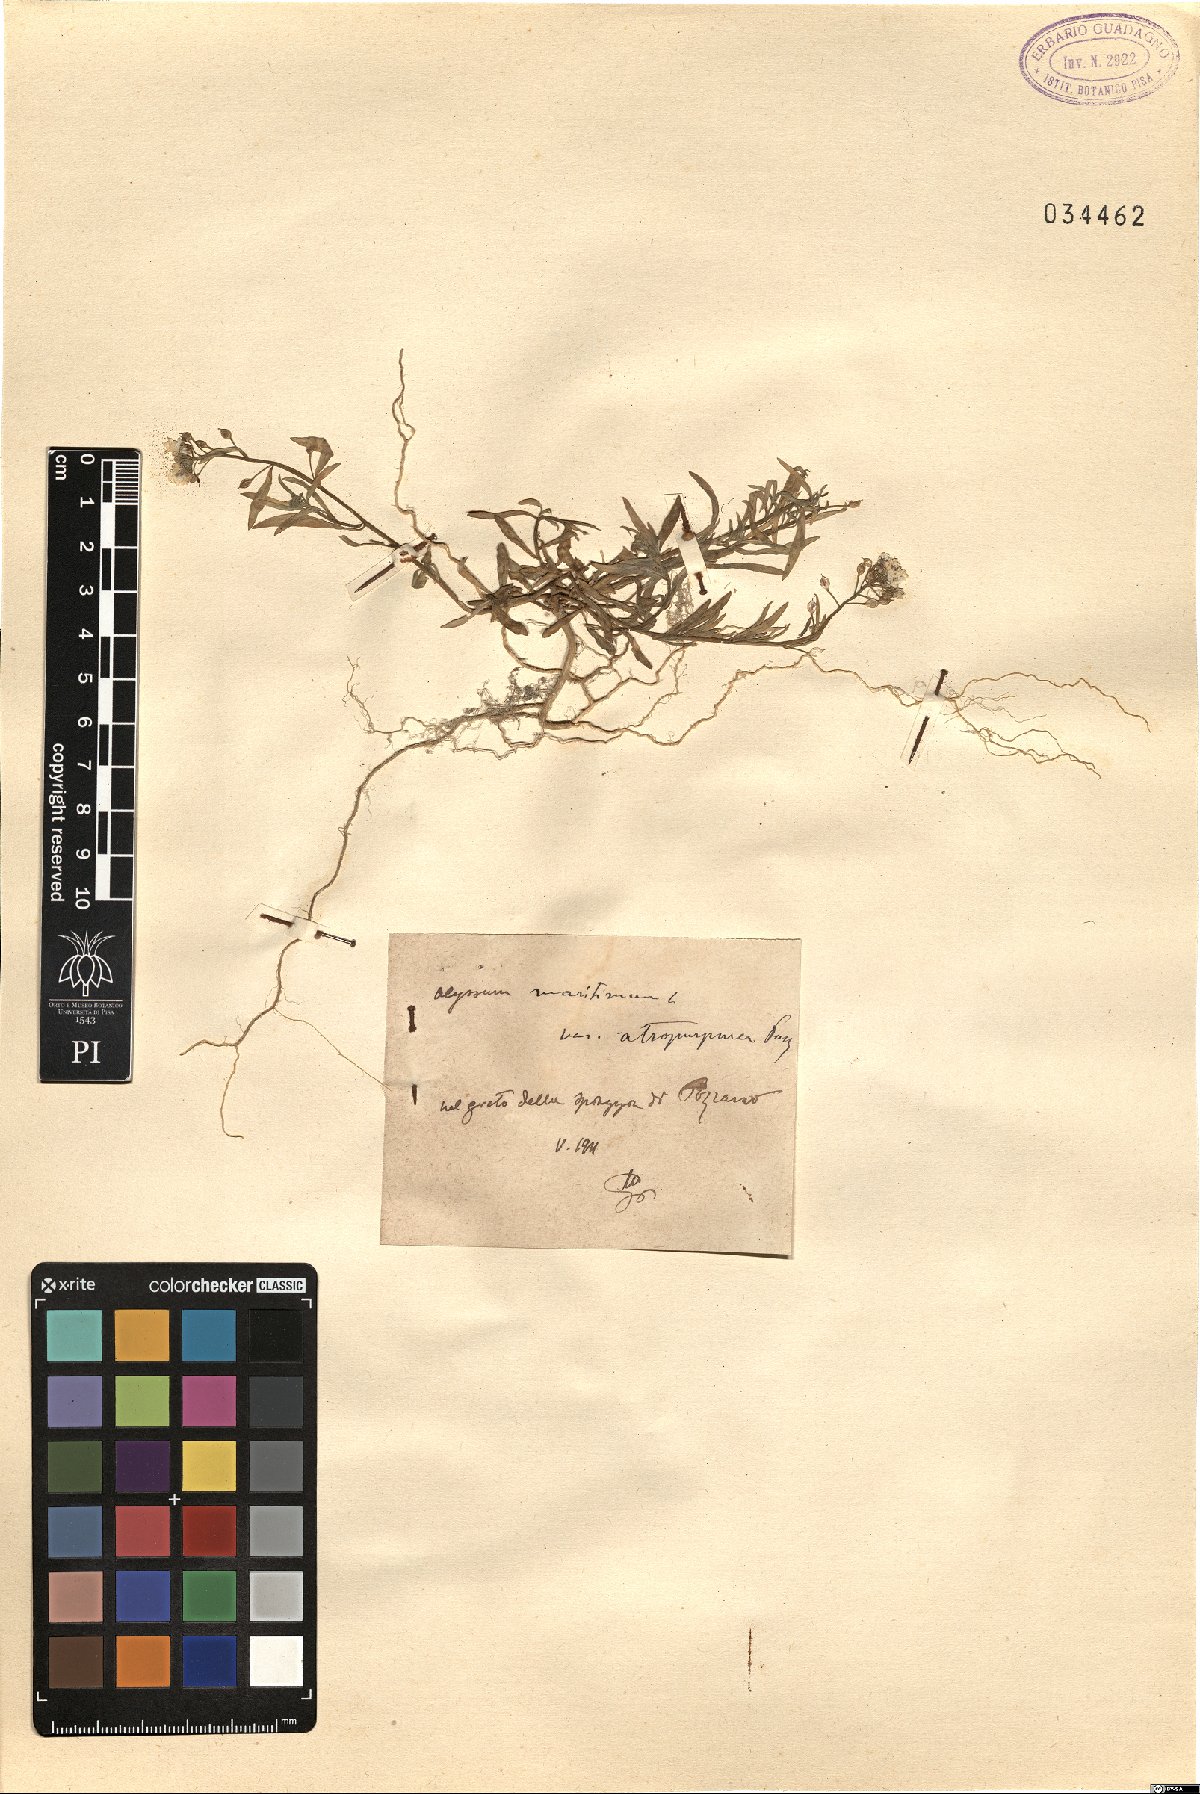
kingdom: Plantae
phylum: Tracheophyta
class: Magnoliopsida
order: Brassicales
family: Brassicaceae
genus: Lobularia
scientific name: Lobularia maritima
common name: Sweet alison
